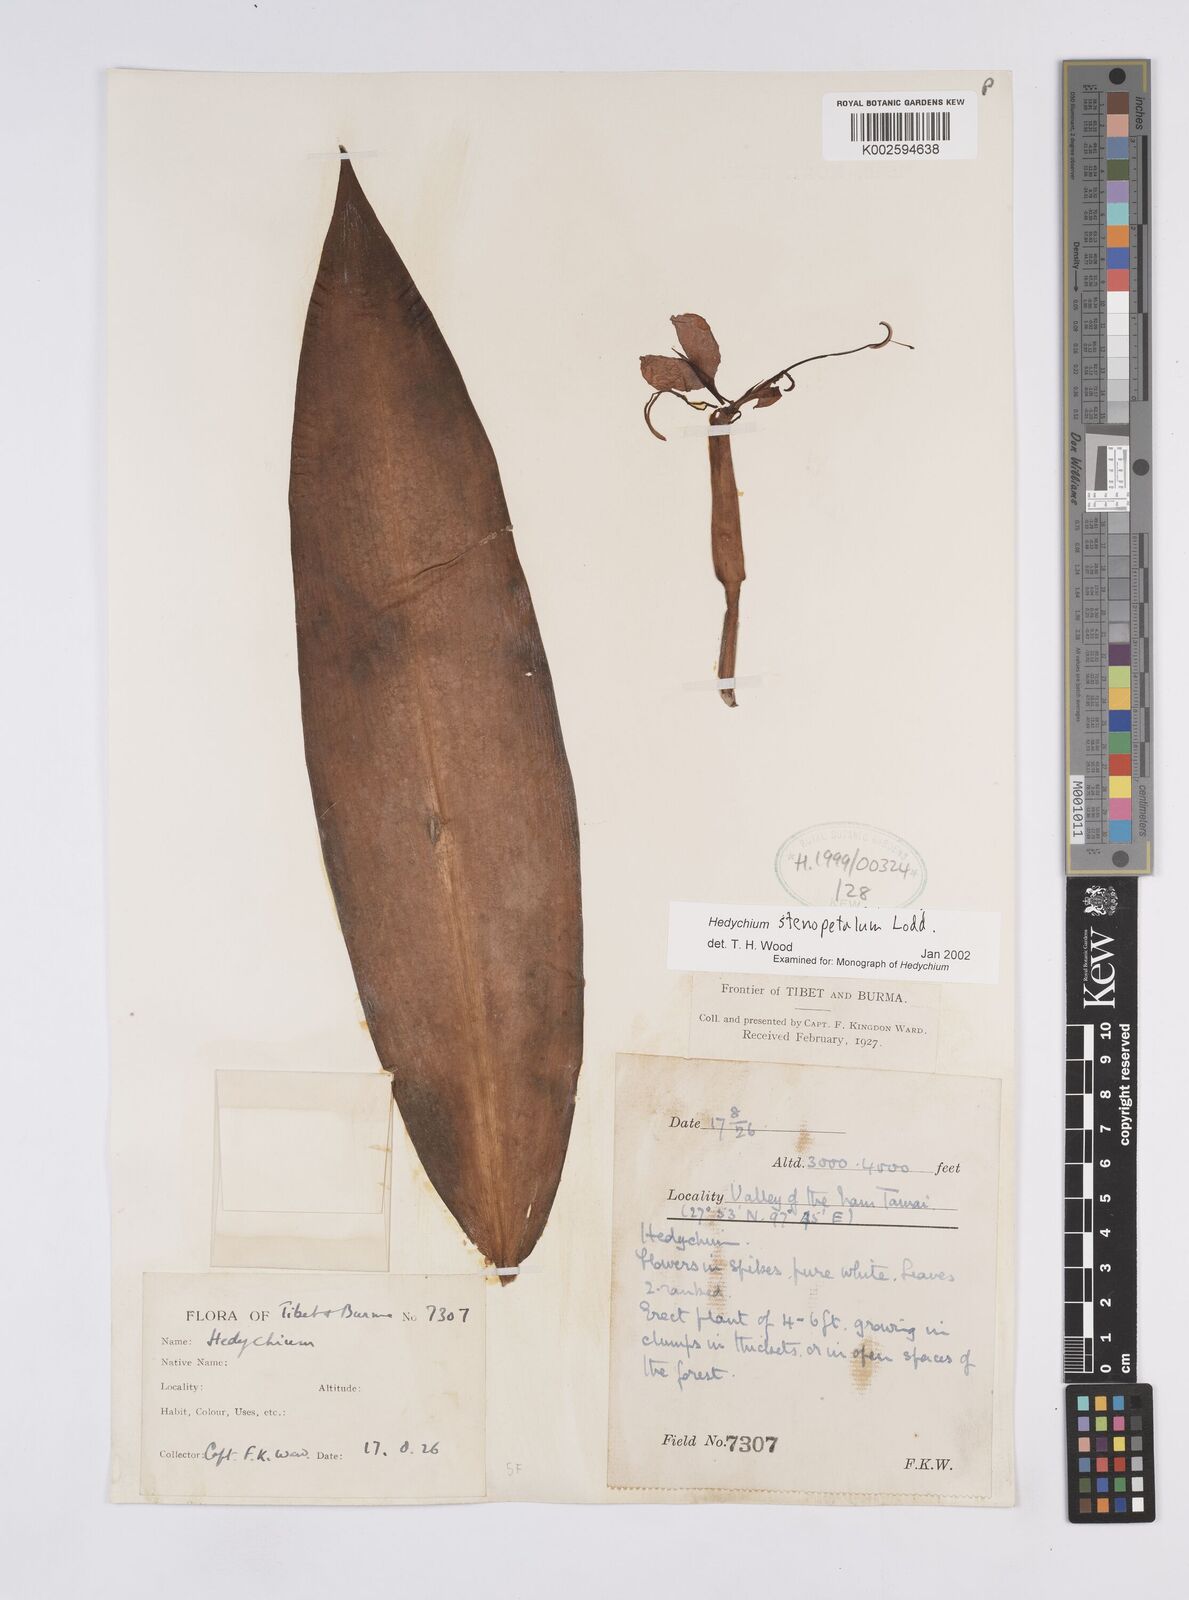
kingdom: Plantae
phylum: Tracheophyta
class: Liliopsida
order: Zingiberales
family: Zingiberaceae
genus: Hedychium
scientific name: Hedychium stenopetalum
